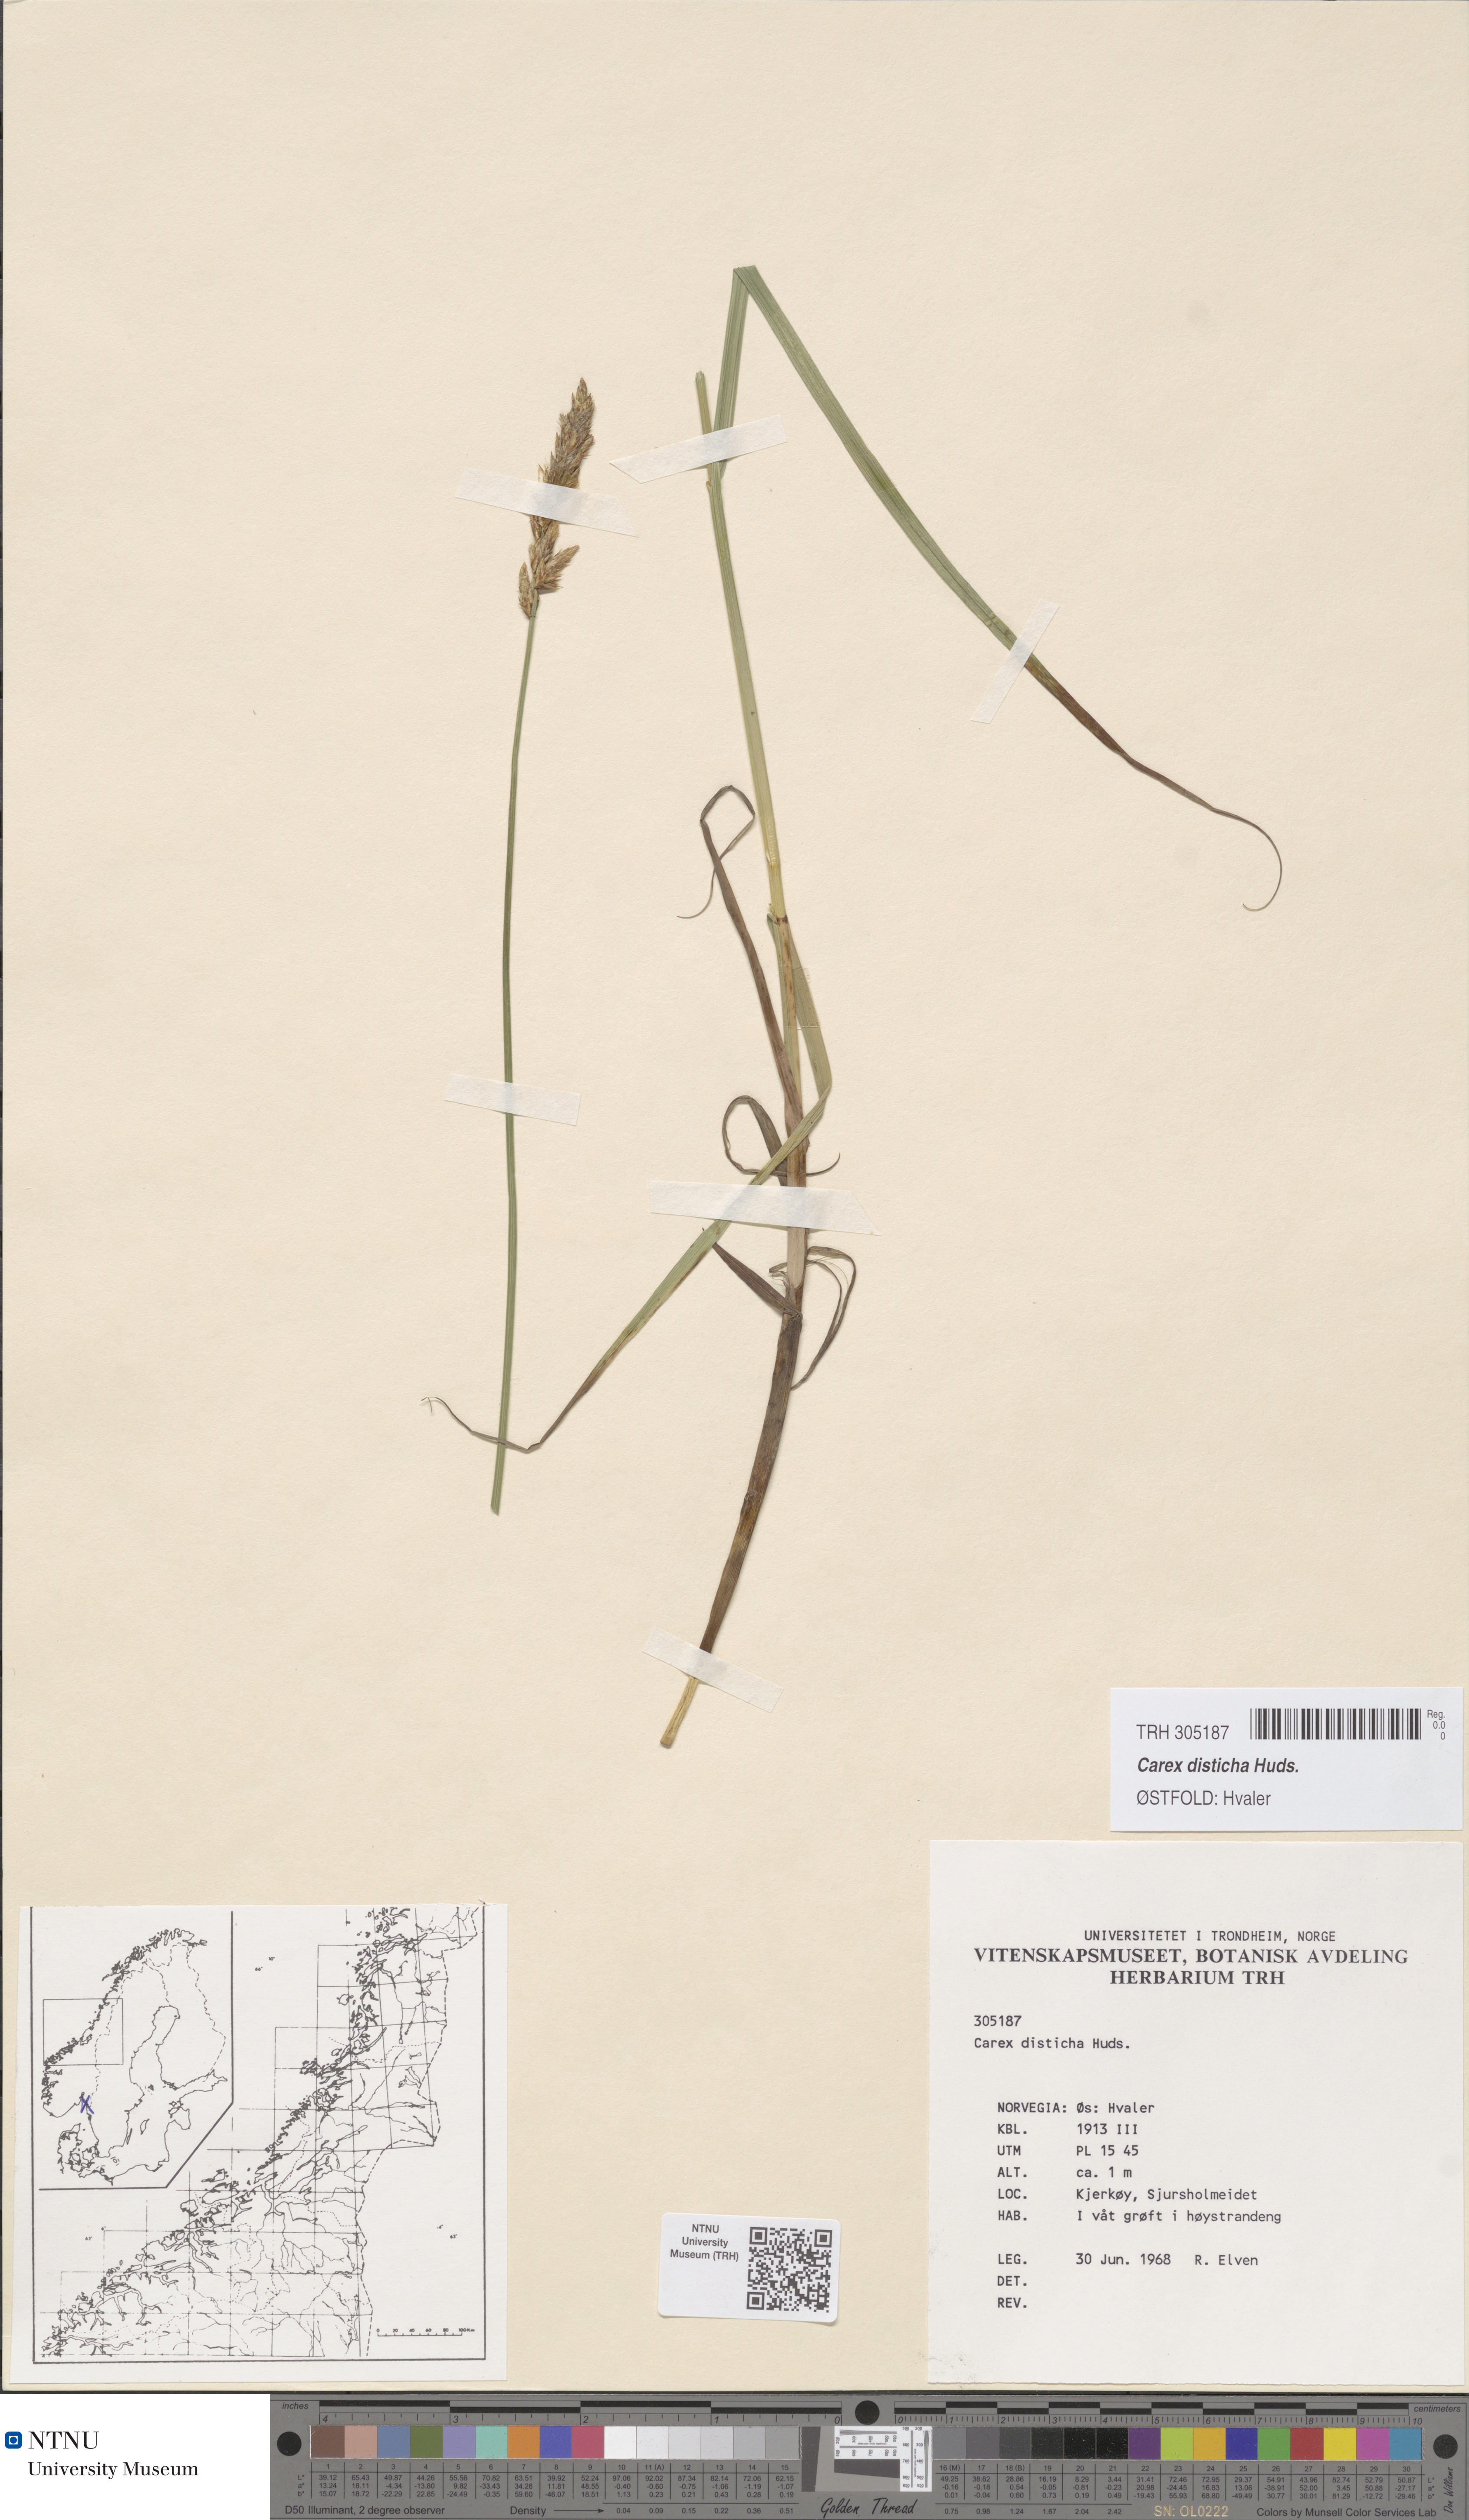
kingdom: Plantae
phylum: Tracheophyta
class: Liliopsida
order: Poales
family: Cyperaceae
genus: Carex
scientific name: Carex disticha
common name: Brown sedge
